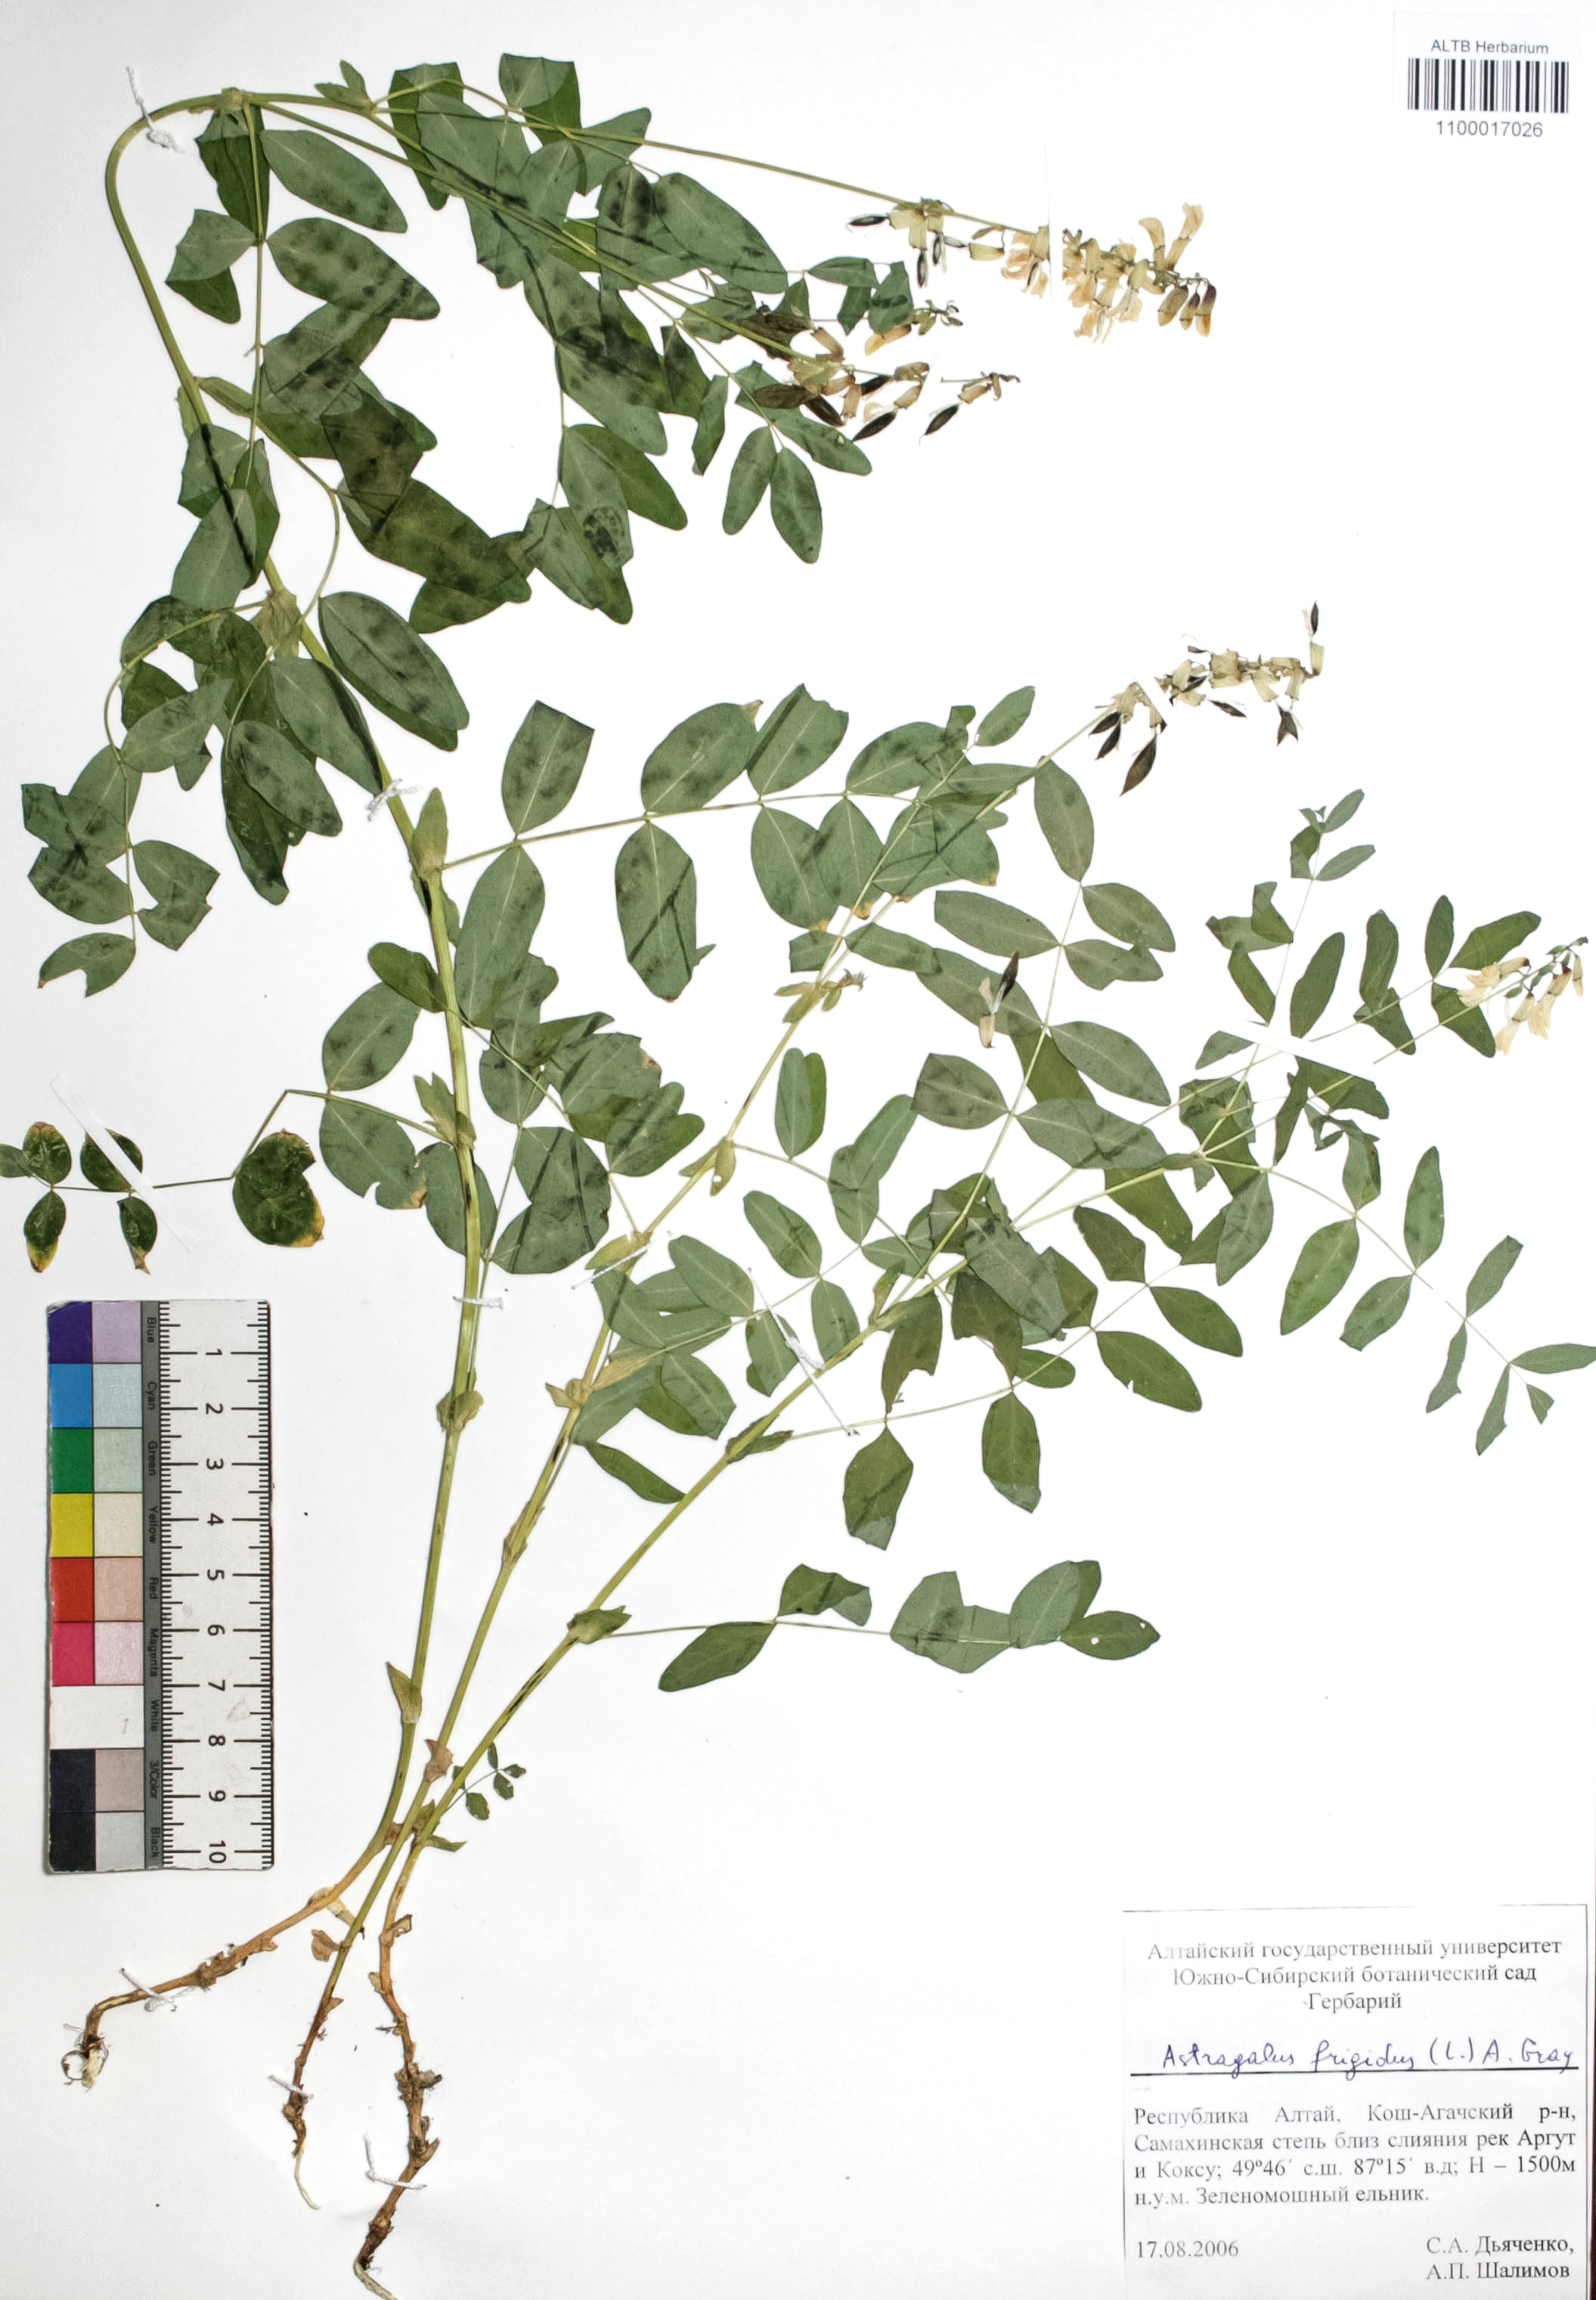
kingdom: Plantae
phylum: Tracheophyta
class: Magnoliopsida
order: Fabales
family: Fabaceae
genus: Astragalus
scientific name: Astragalus frigidus
